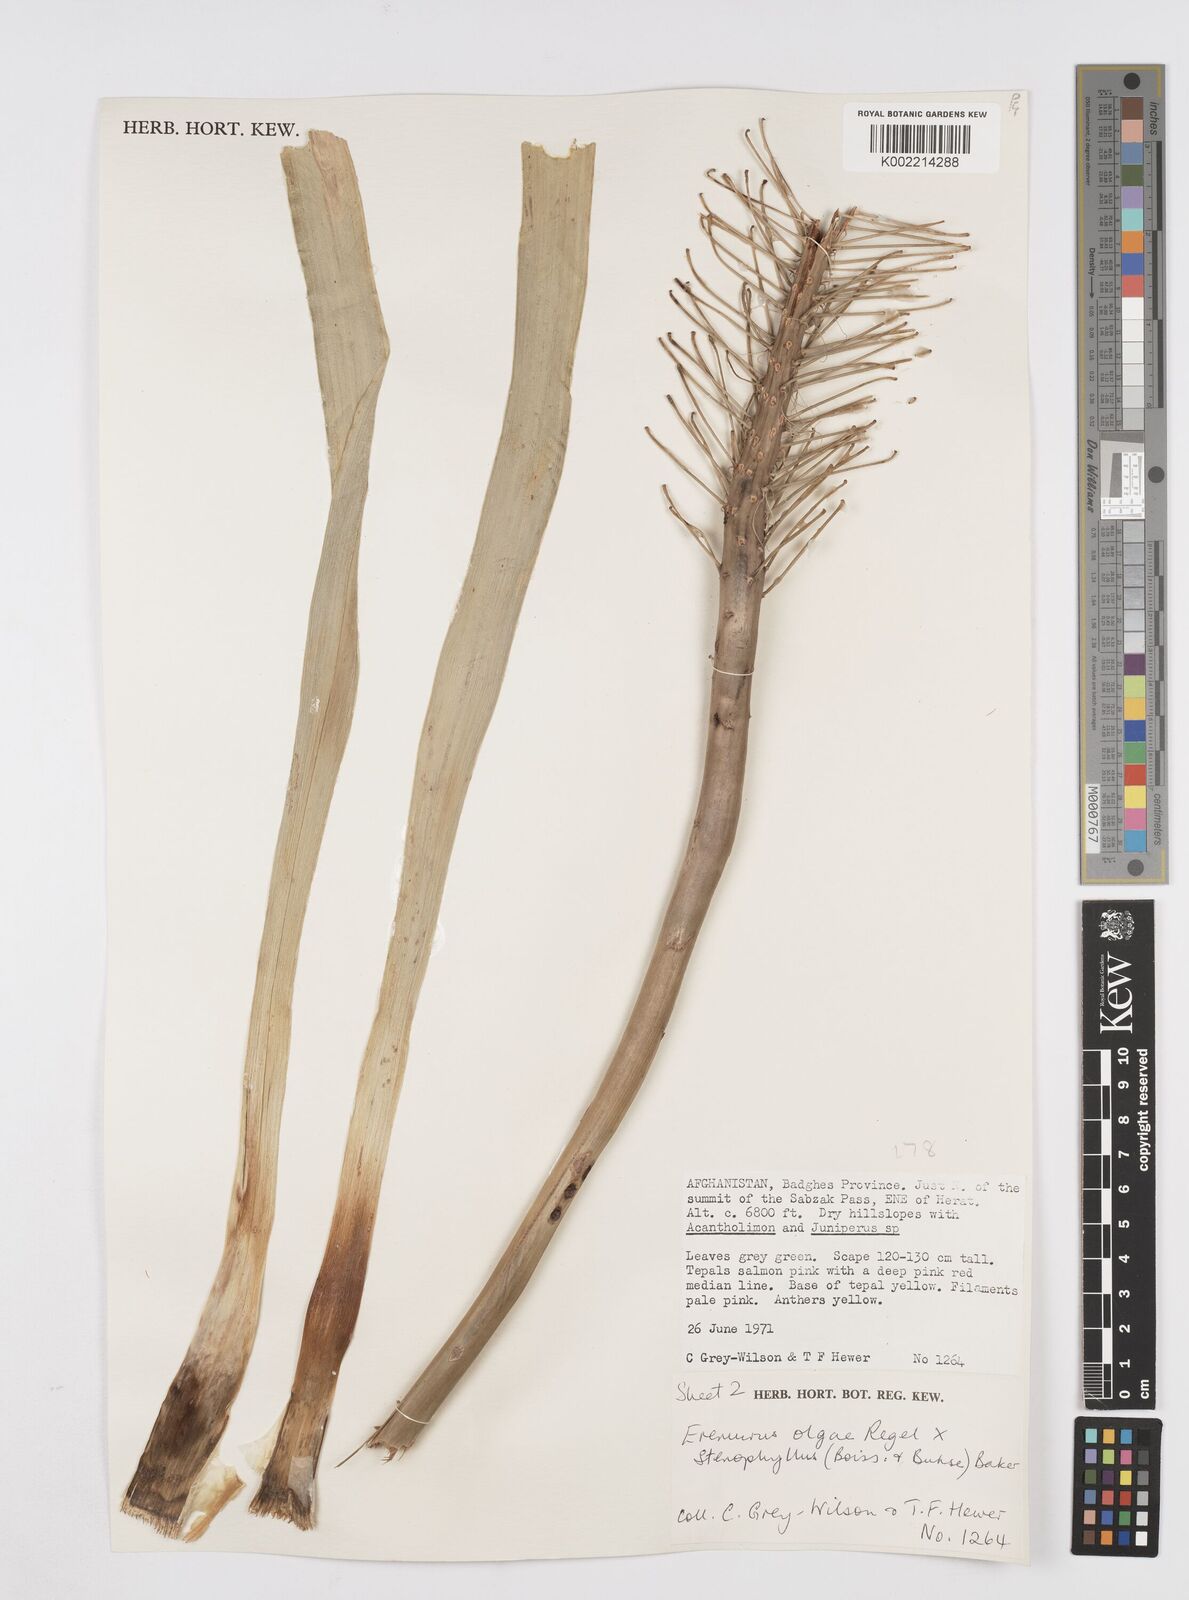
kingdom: Plantae
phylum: Tracheophyta
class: Liliopsida
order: Asparagales
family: Asphodelaceae
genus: Eremurus
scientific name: Eremurus olgae
